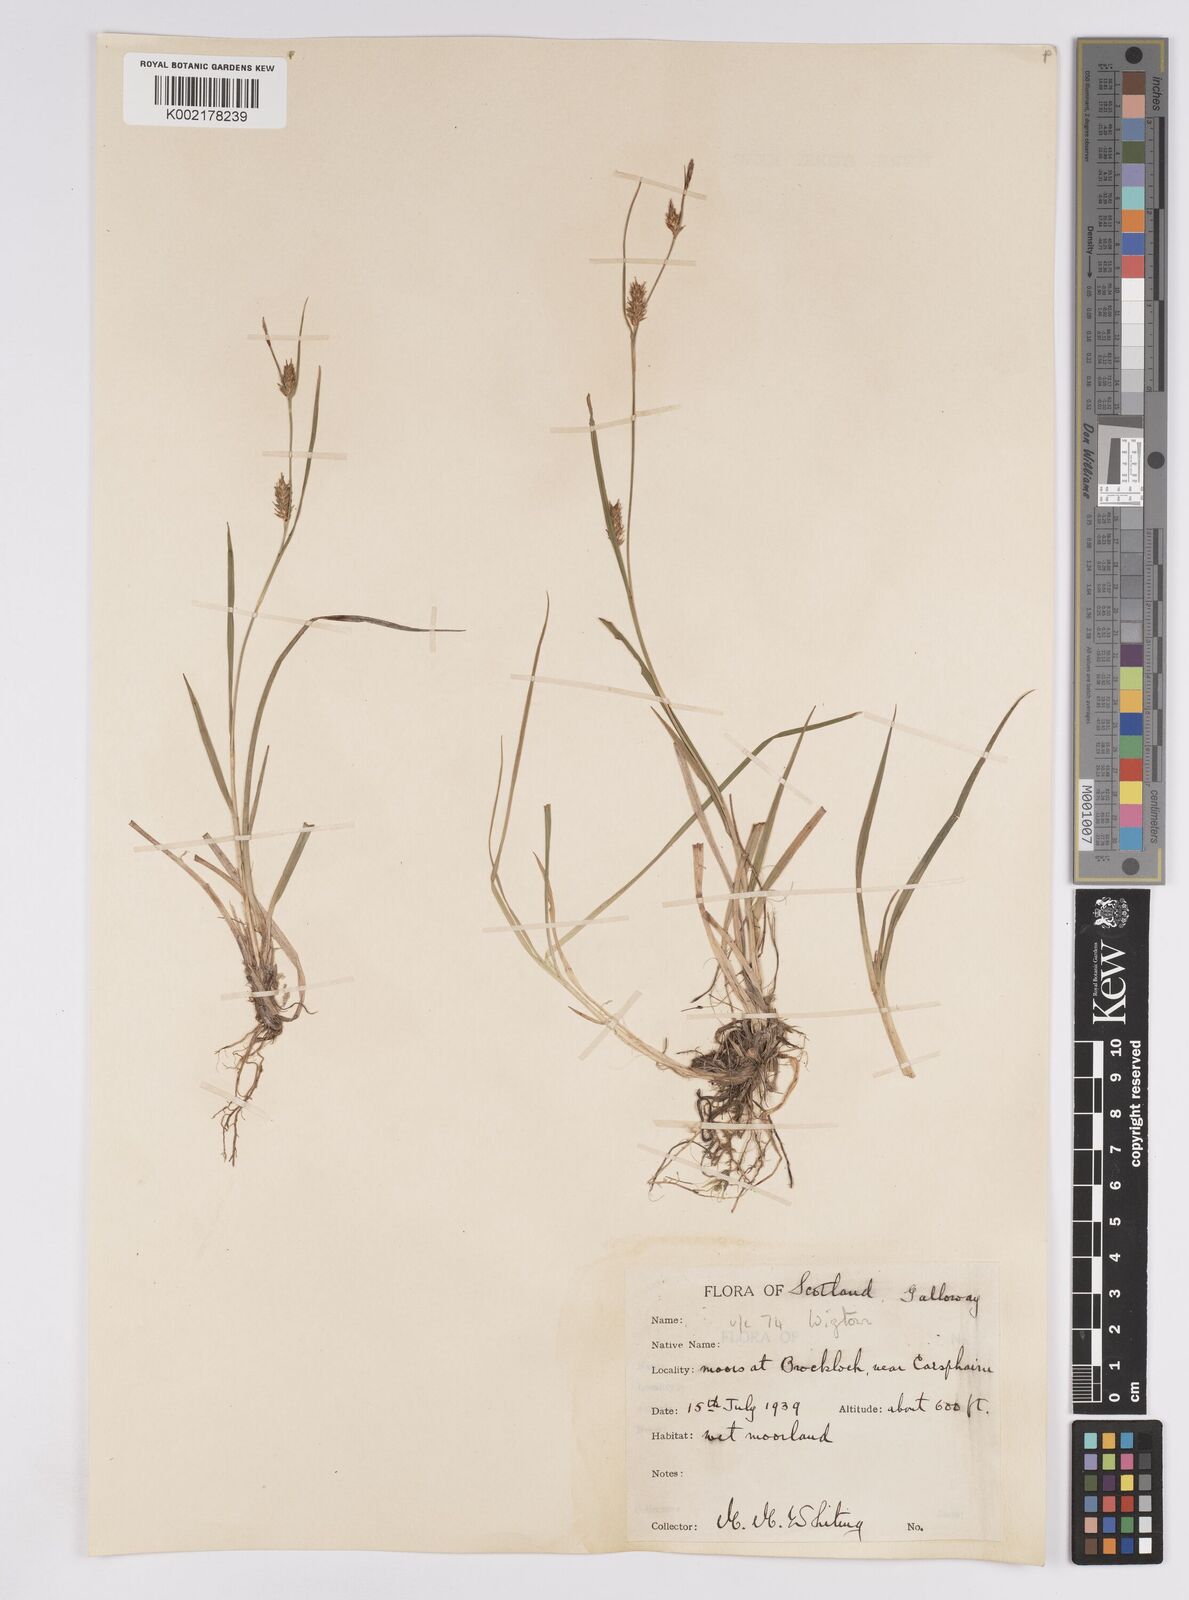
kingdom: Plantae
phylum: Tracheophyta
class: Liliopsida
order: Poales
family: Cyperaceae
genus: Carex
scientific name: Carex demissa
